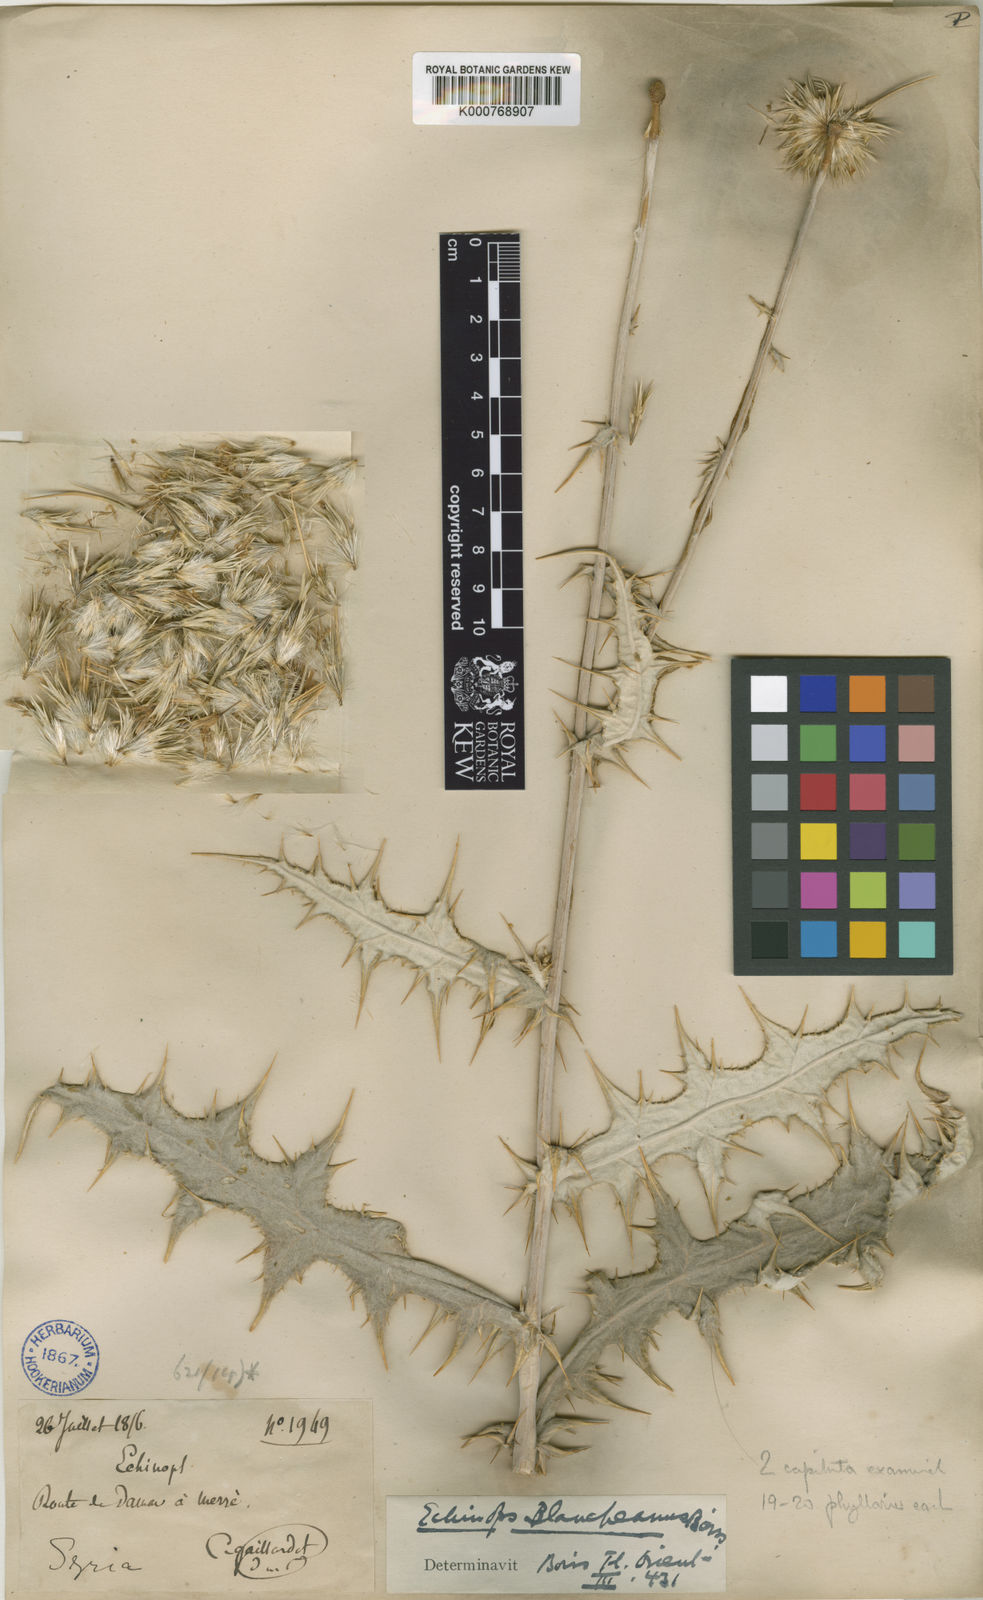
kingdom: Plantae
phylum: Tracheophyta
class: Magnoliopsida
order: Asterales
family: Asteraceae
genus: Echinops
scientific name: Echinops polyceras
